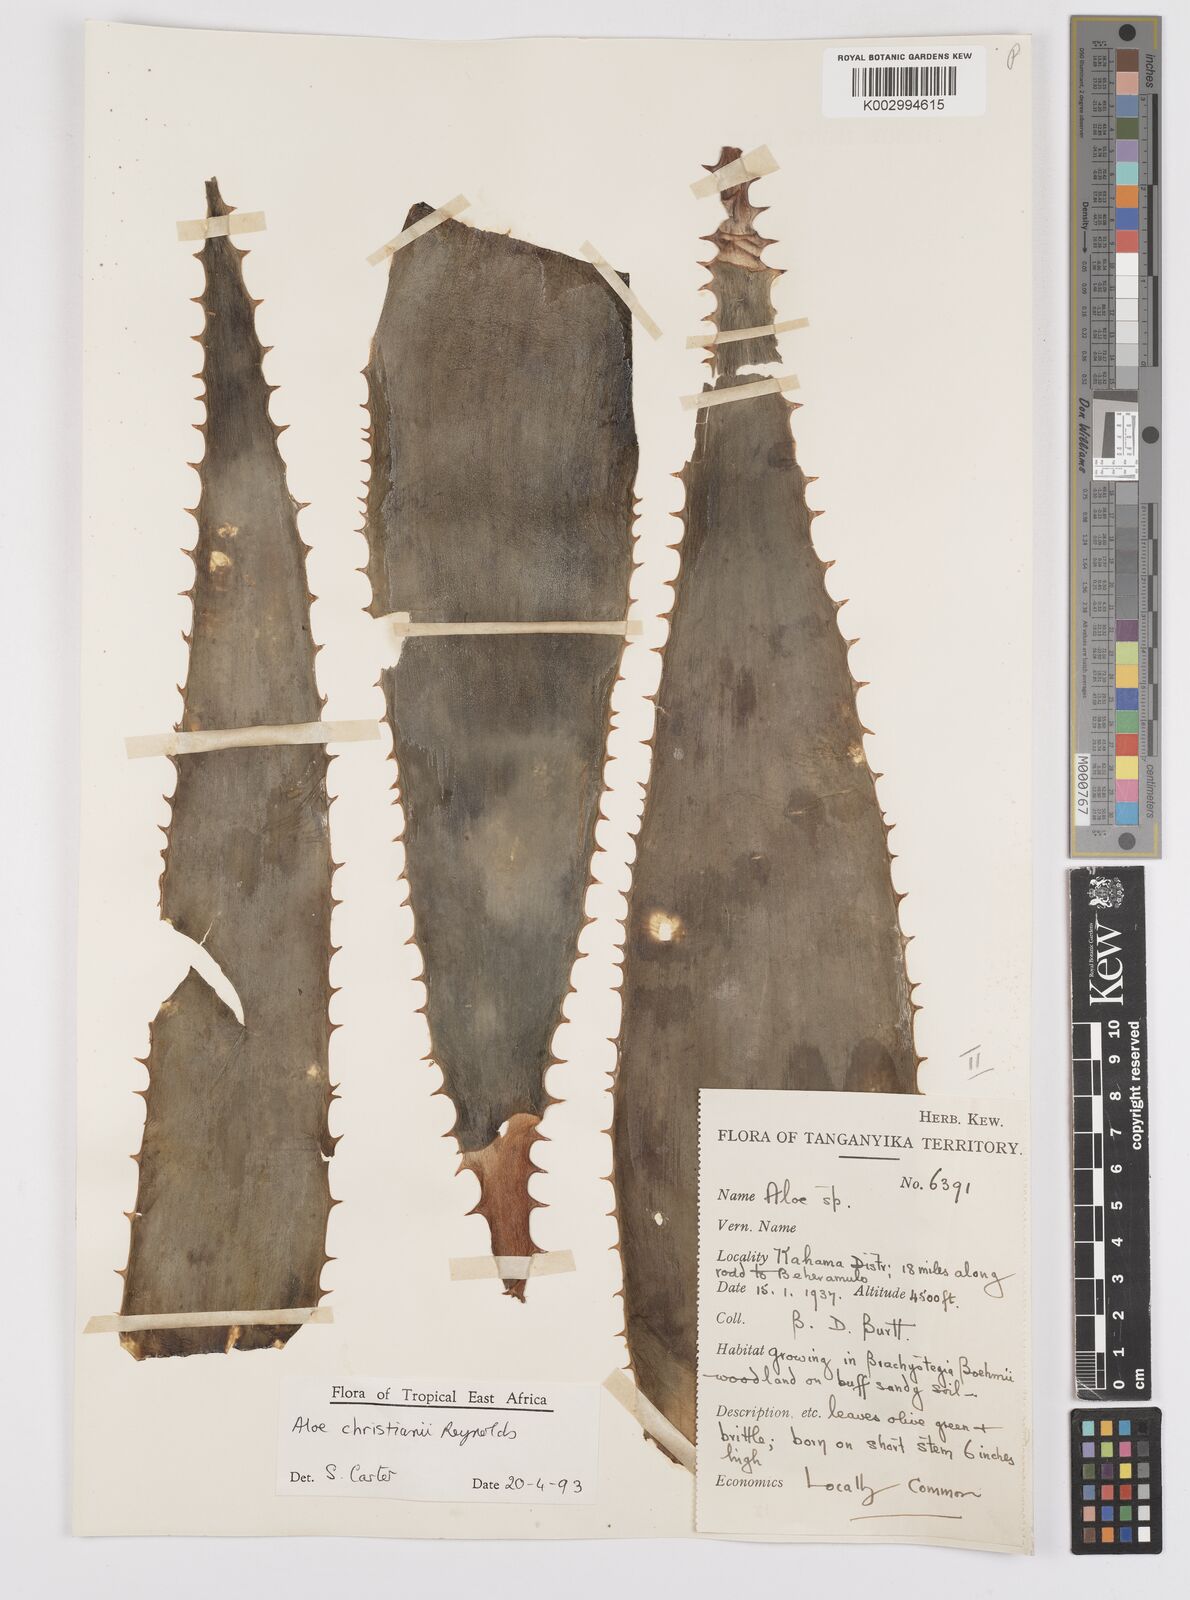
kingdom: Plantae
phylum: Tracheophyta
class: Liliopsida
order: Asparagales
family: Asphodelaceae
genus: Aloe
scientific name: Aloe christianii
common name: Basil christian's aloe
